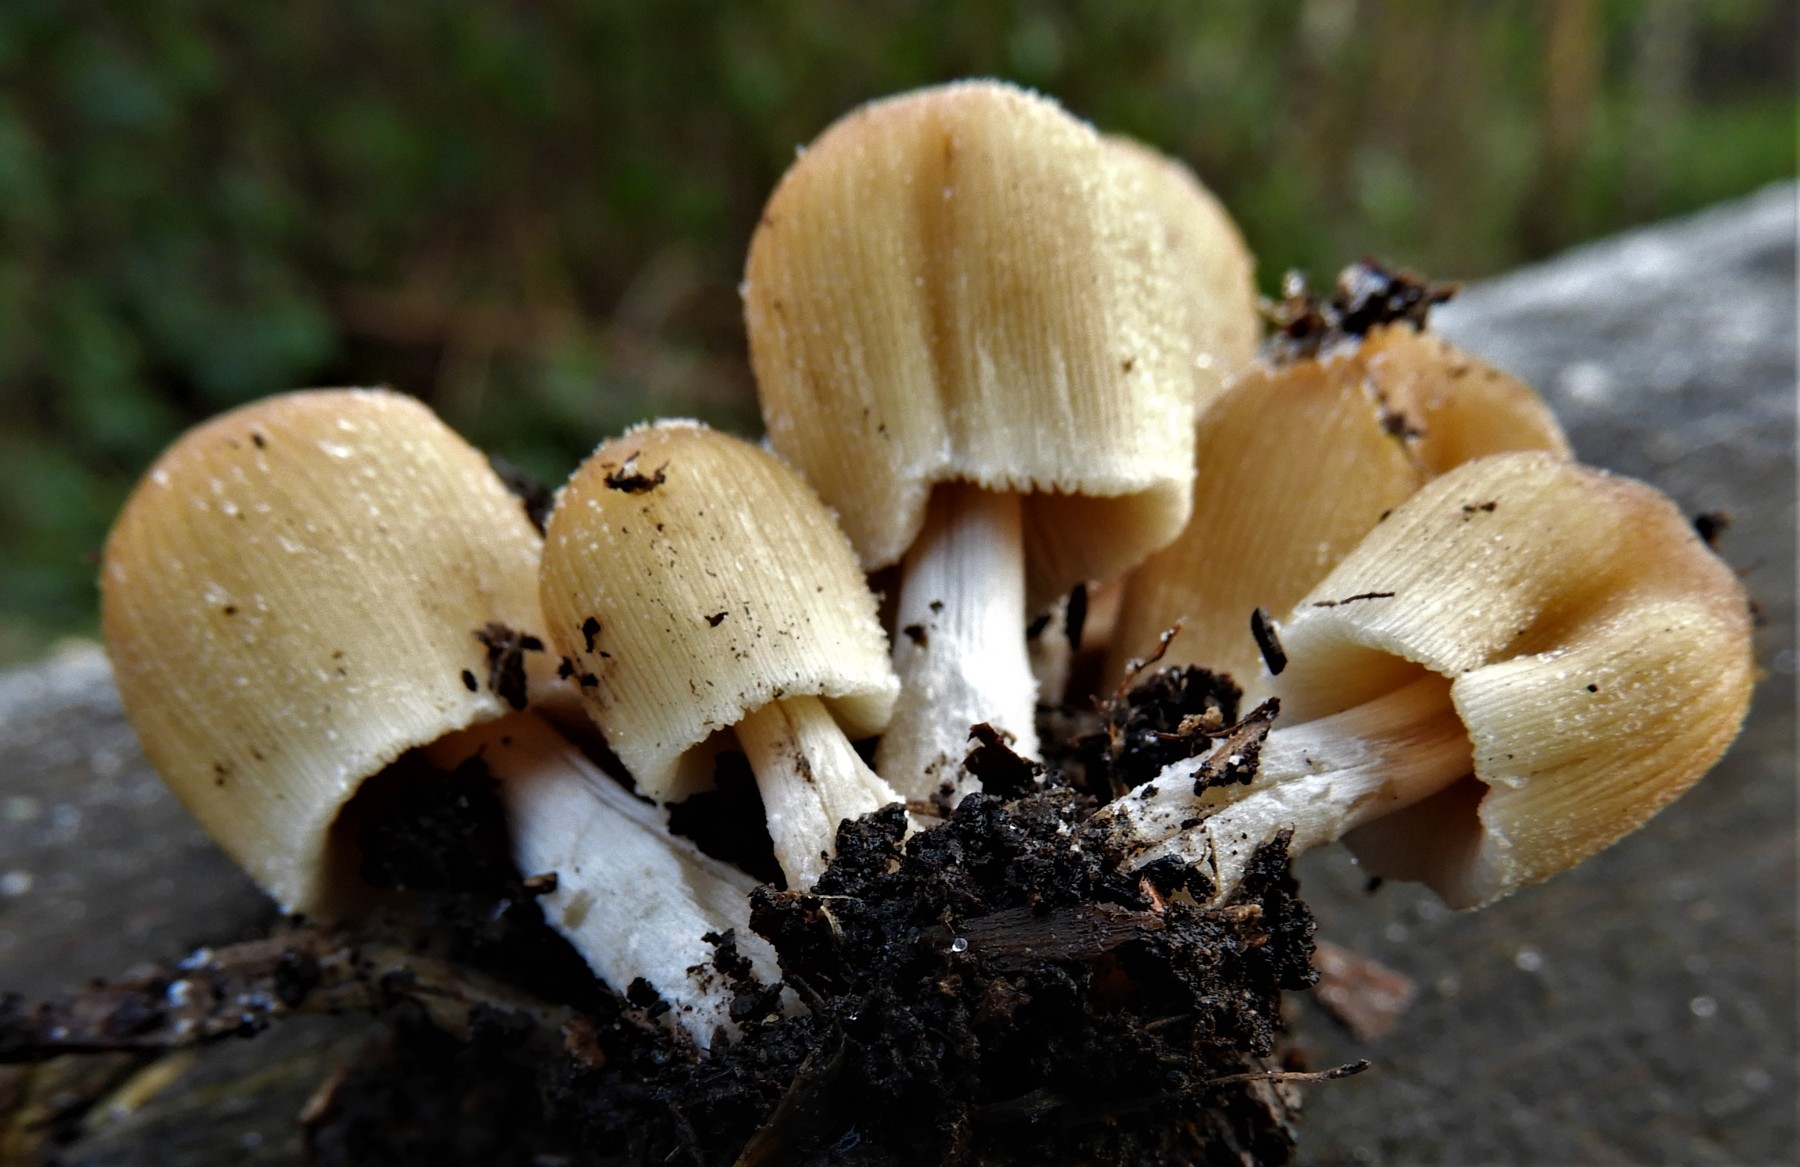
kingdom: Fungi
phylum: Basidiomycota
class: Agaricomycetes
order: Agaricales
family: Psathyrellaceae
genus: Coprinellus
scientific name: Coprinellus micaceus
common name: glimmer-blækhat
